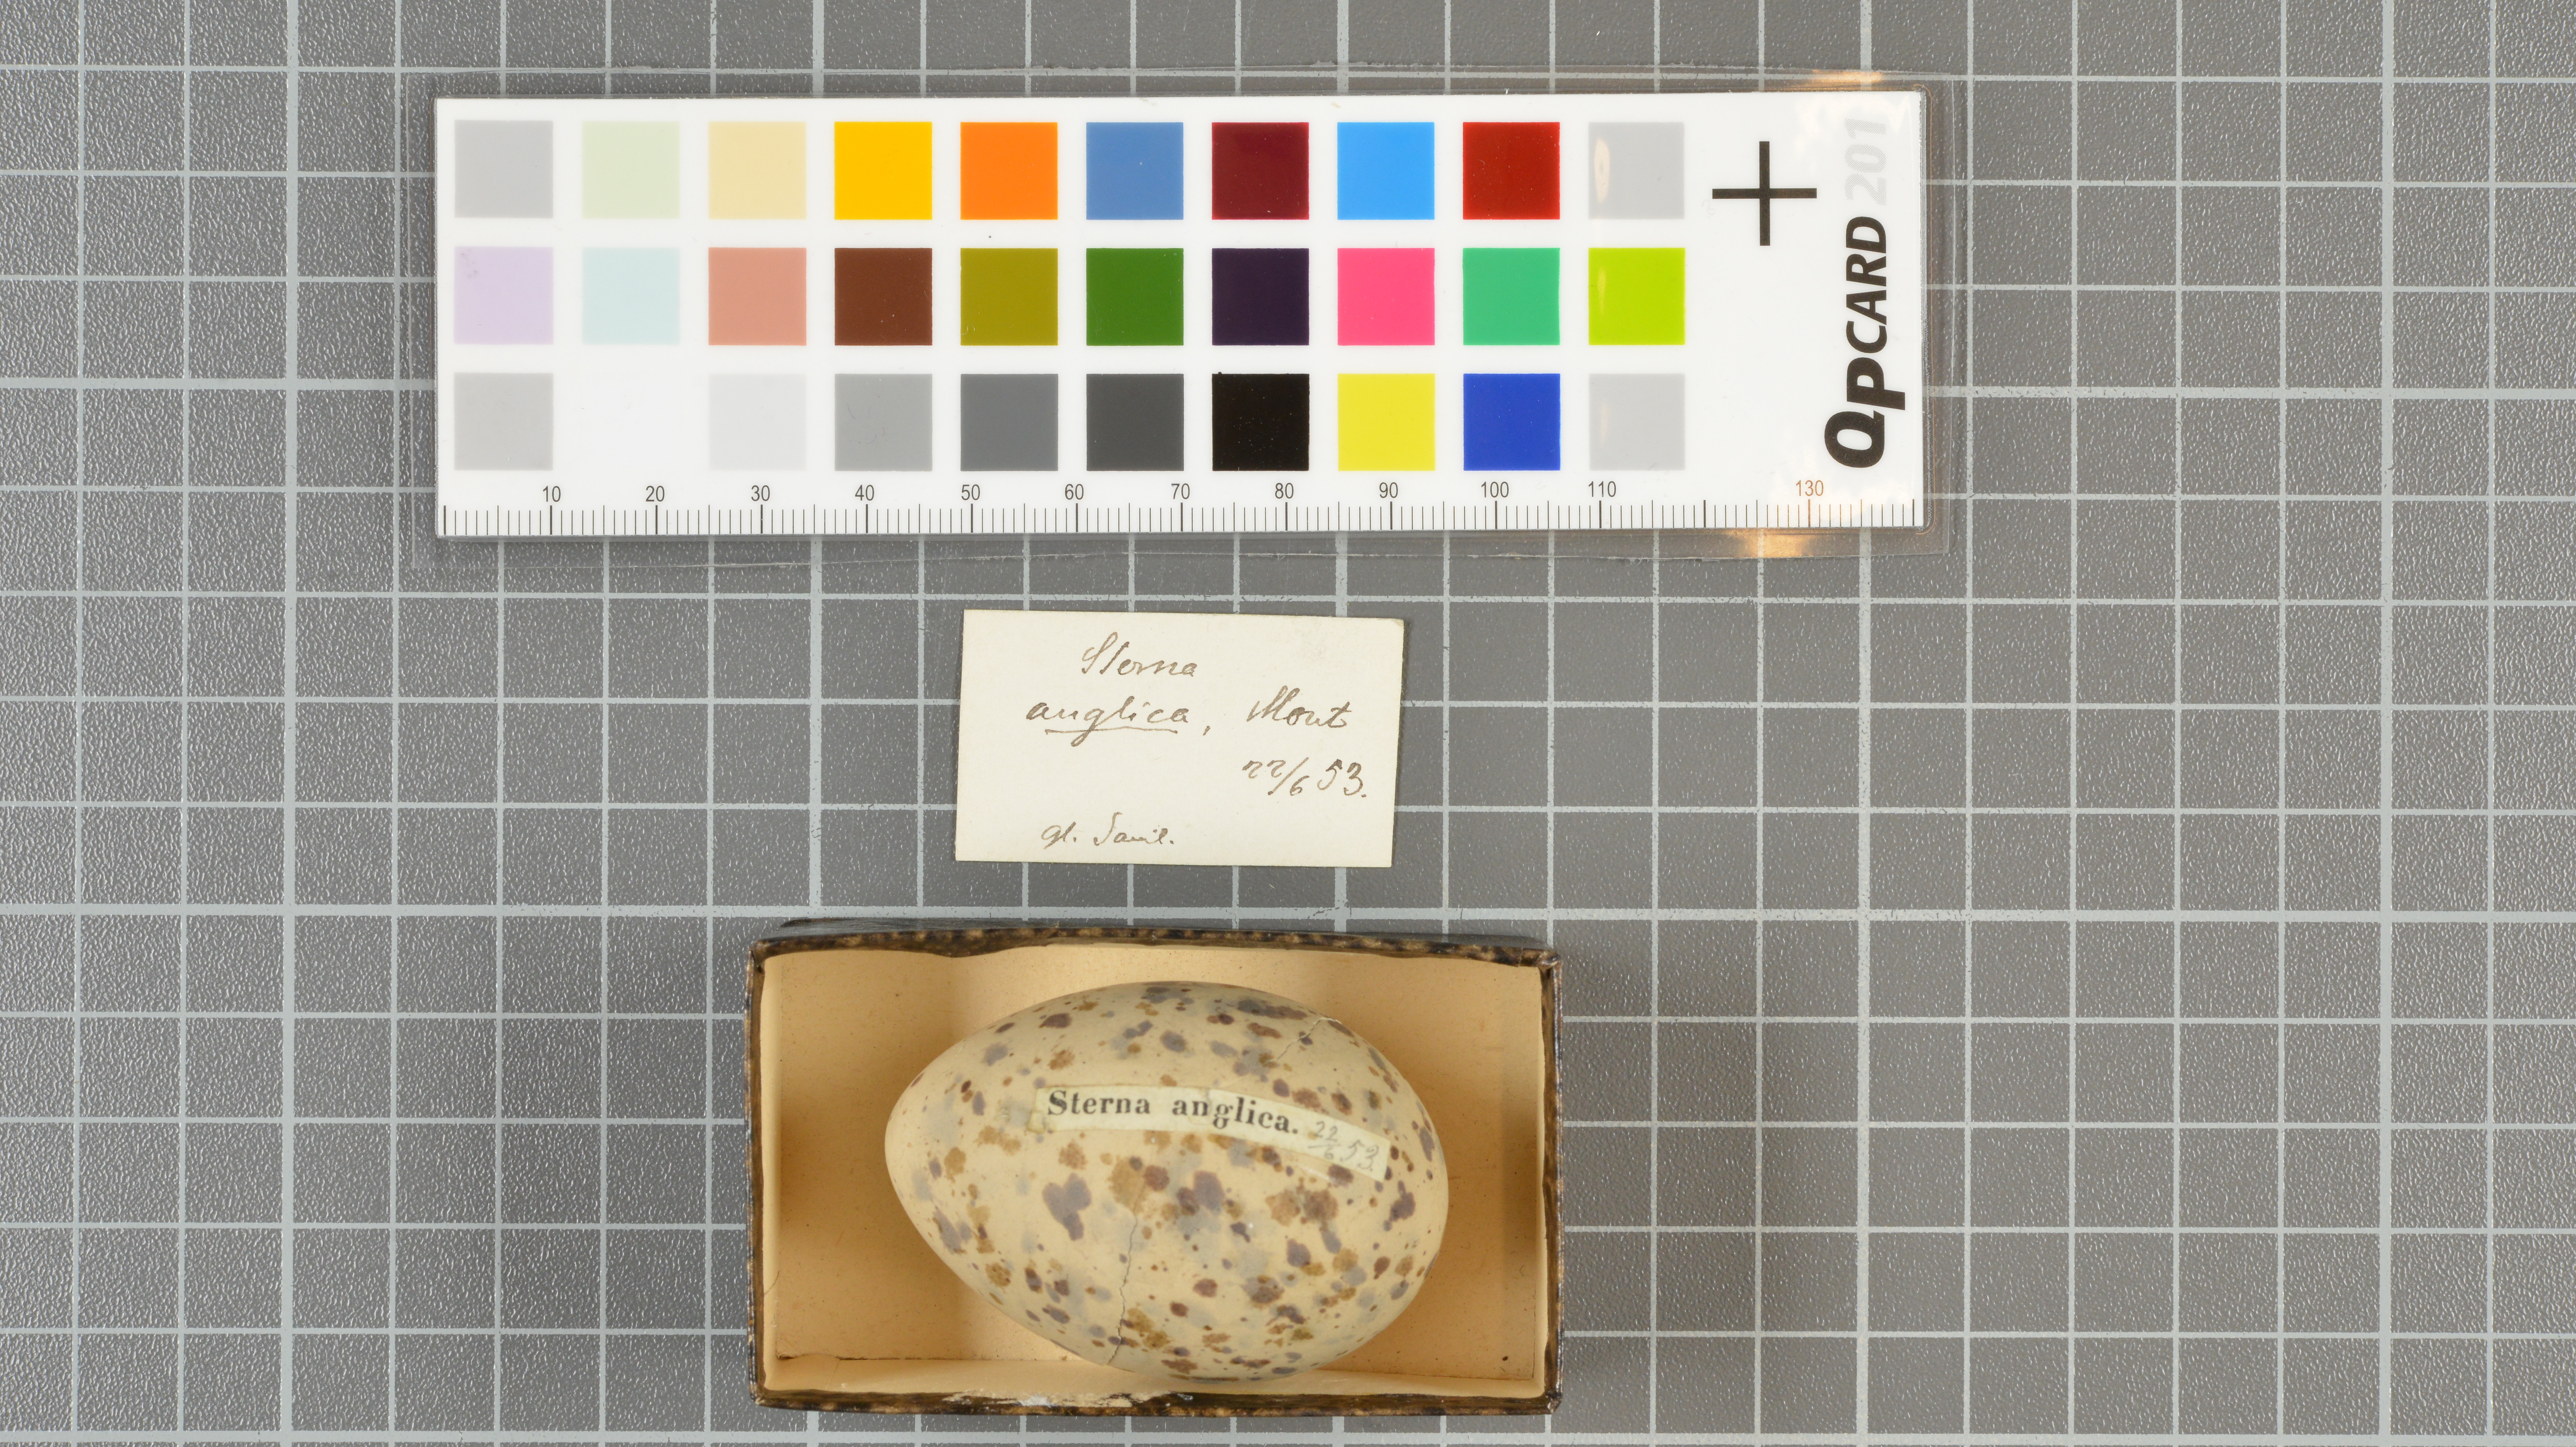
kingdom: Animalia
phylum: Chordata
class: Aves
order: Charadriiformes
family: Laridae
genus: Gelochelidon
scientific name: Gelochelidon nilotica
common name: Gull-billed tern
